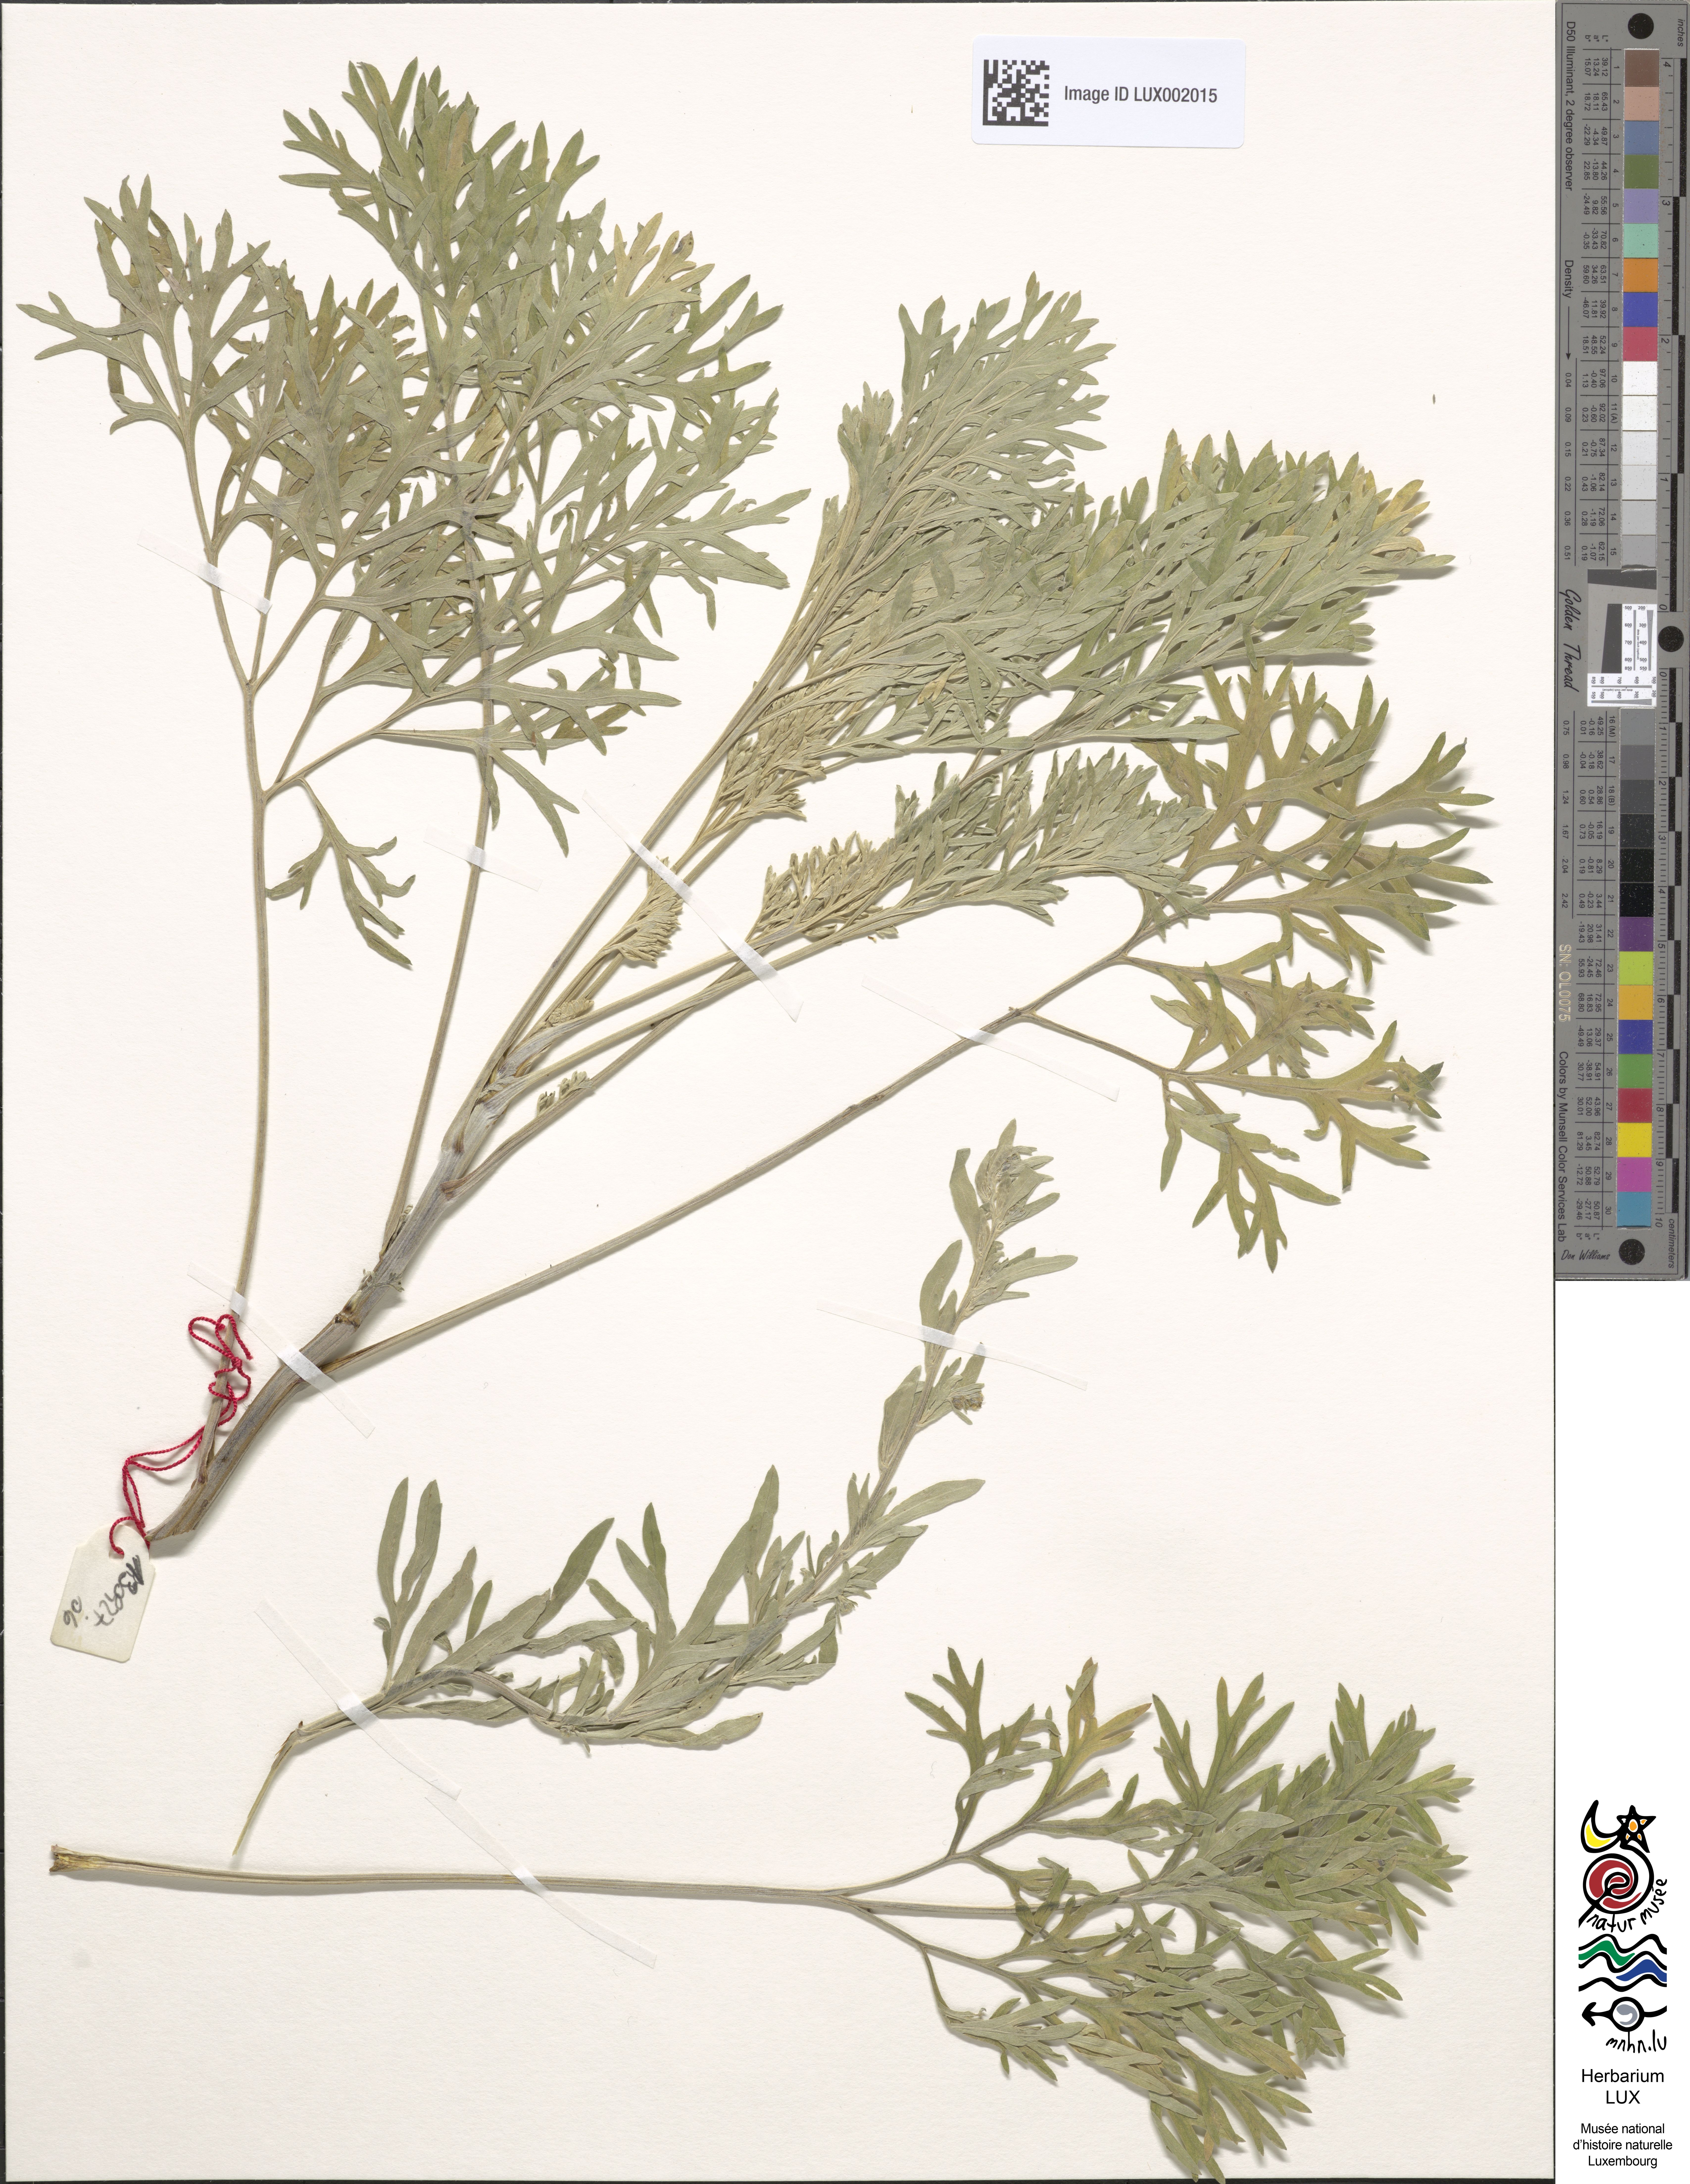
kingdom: Plantae
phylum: Tracheophyta
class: Magnoliopsida
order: Asterales
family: Asteraceae
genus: Artemisia
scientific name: Artemisia absinthium
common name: Wormwood
